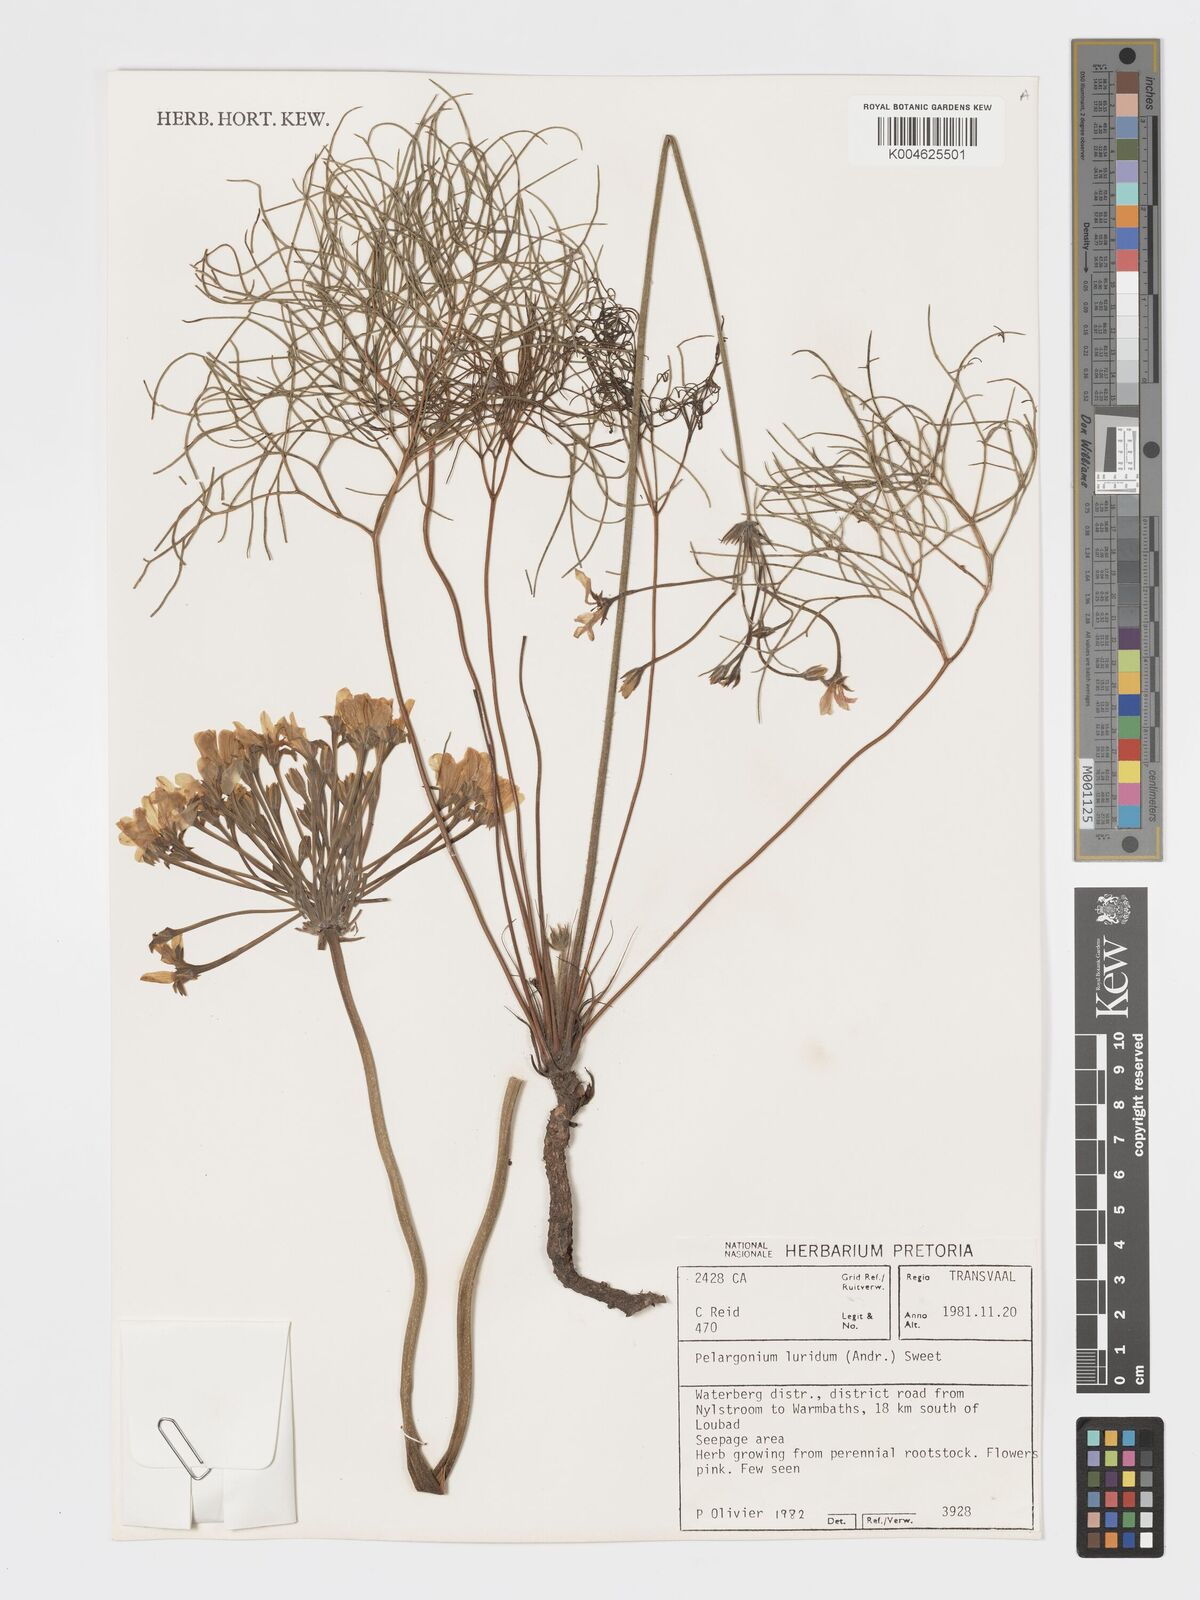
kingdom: Plantae
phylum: Tracheophyta
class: Magnoliopsida
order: Geraniales
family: Geraniaceae
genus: Pelargonium
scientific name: Pelargonium luridum
